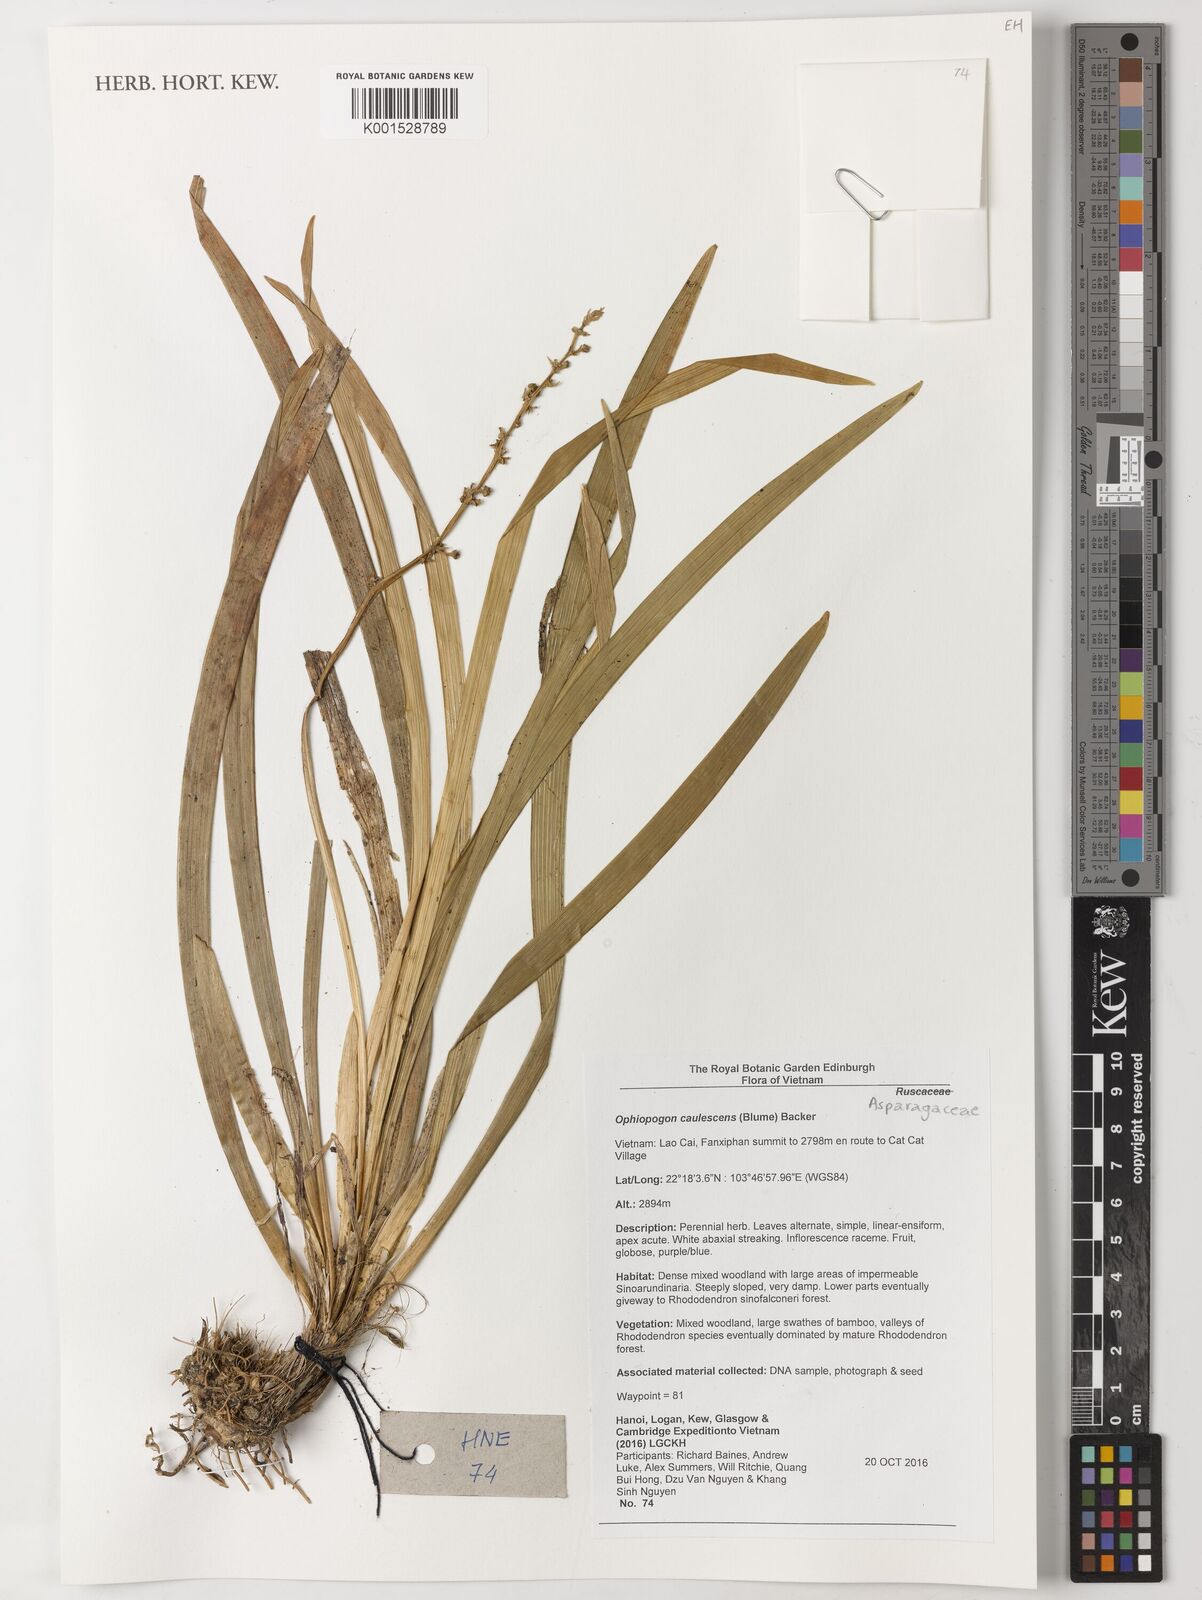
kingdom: Plantae
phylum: Tracheophyta
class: Liliopsida
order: Asparagales
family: Asparagaceae
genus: Ophiopogon
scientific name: Ophiopogon caulescens
